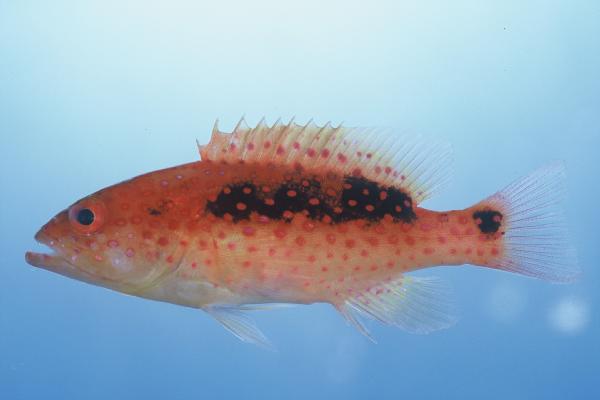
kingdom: Animalia
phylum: Chordata
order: Perciformes
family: Serranidae
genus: Variola
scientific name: Variola louti
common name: Yellow-edged lyretail
